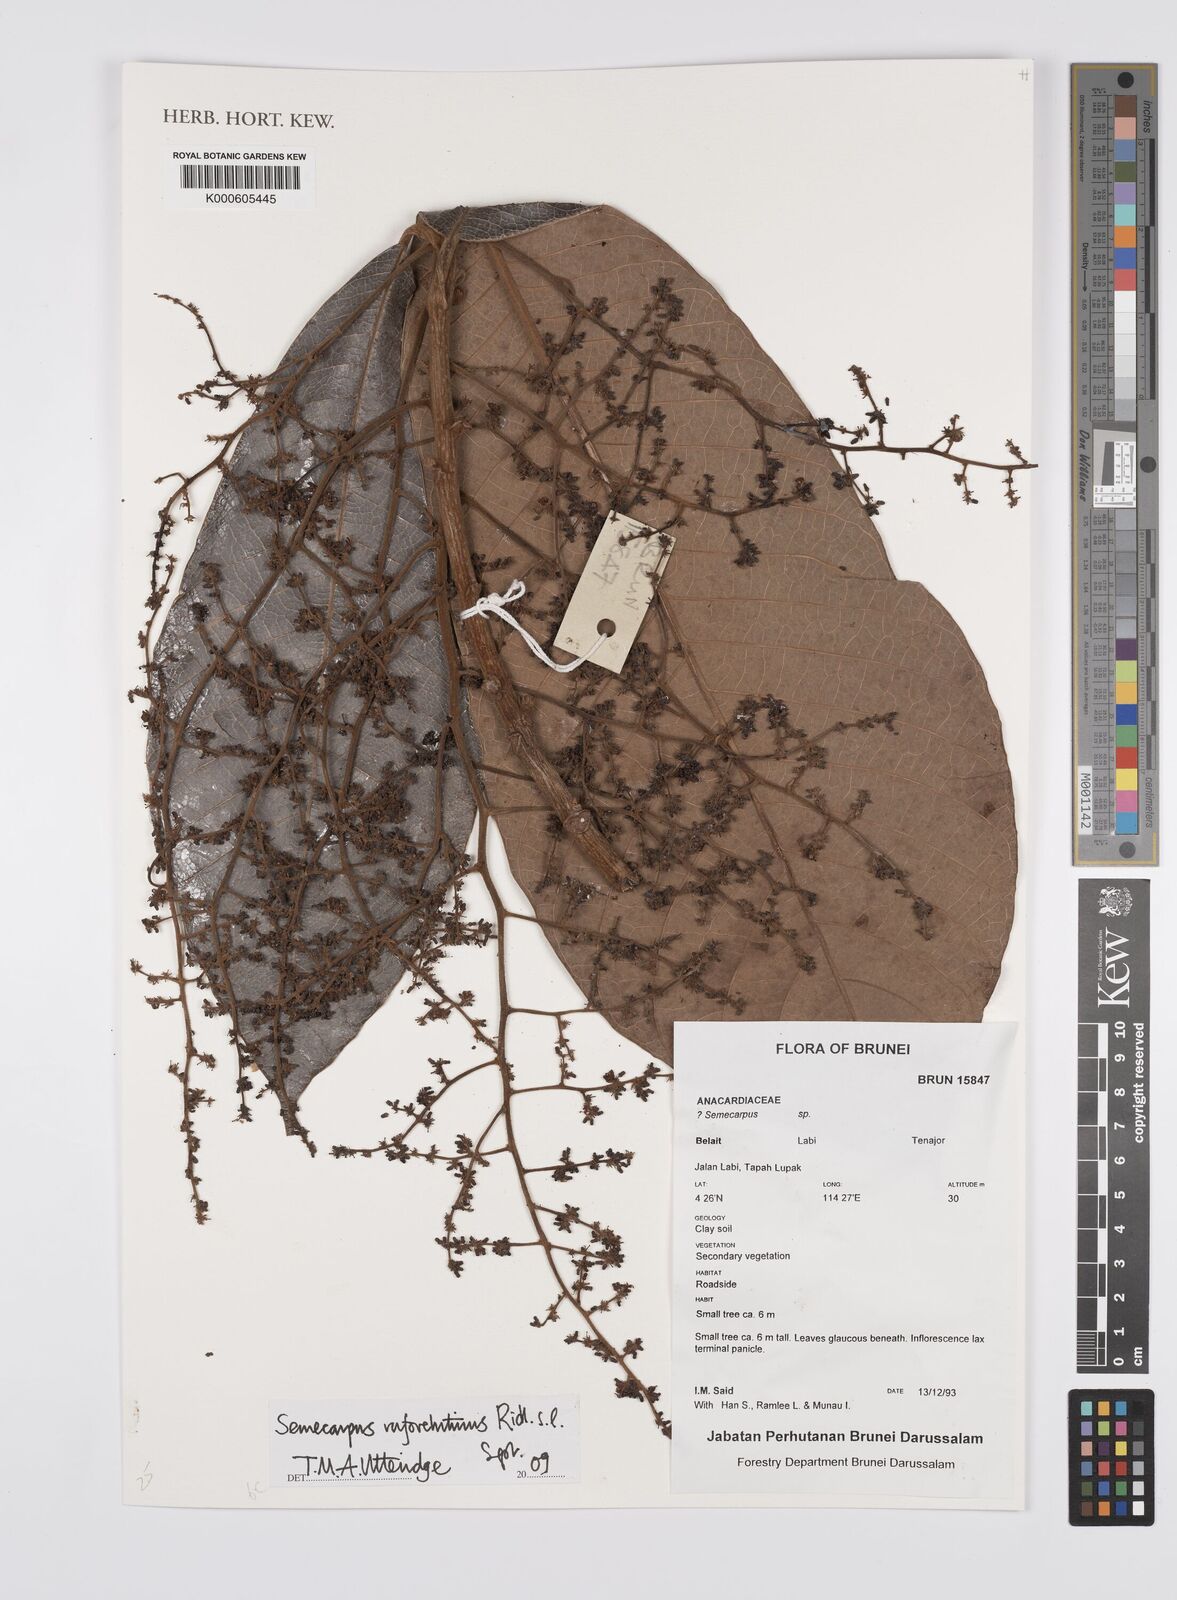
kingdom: Plantae
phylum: Tracheophyta
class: Magnoliopsida
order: Sapindales
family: Anacardiaceae
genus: Semecarpus
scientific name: Semecarpus rufovelutinus
